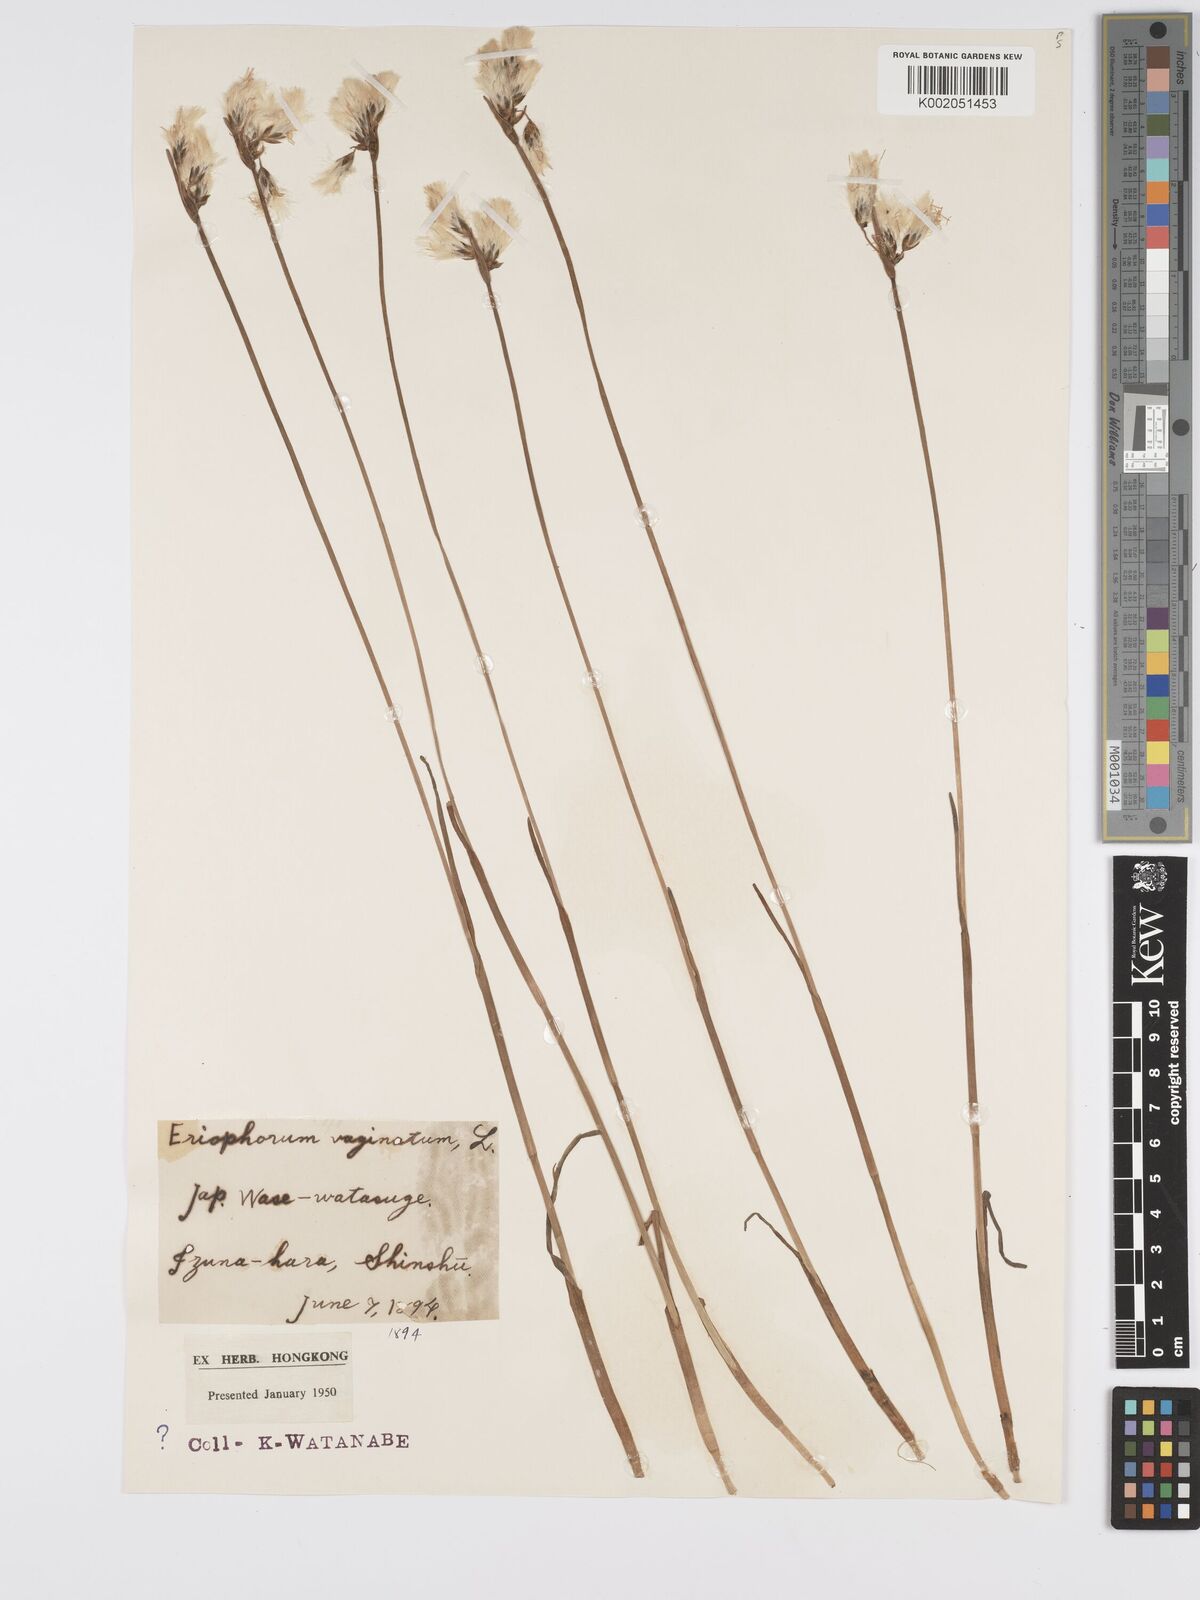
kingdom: Plantae
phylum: Tracheophyta
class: Liliopsida
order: Poales
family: Cyperaceae
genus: Eriophorum
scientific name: Eriophorum gracile
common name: Slender cottongrass
